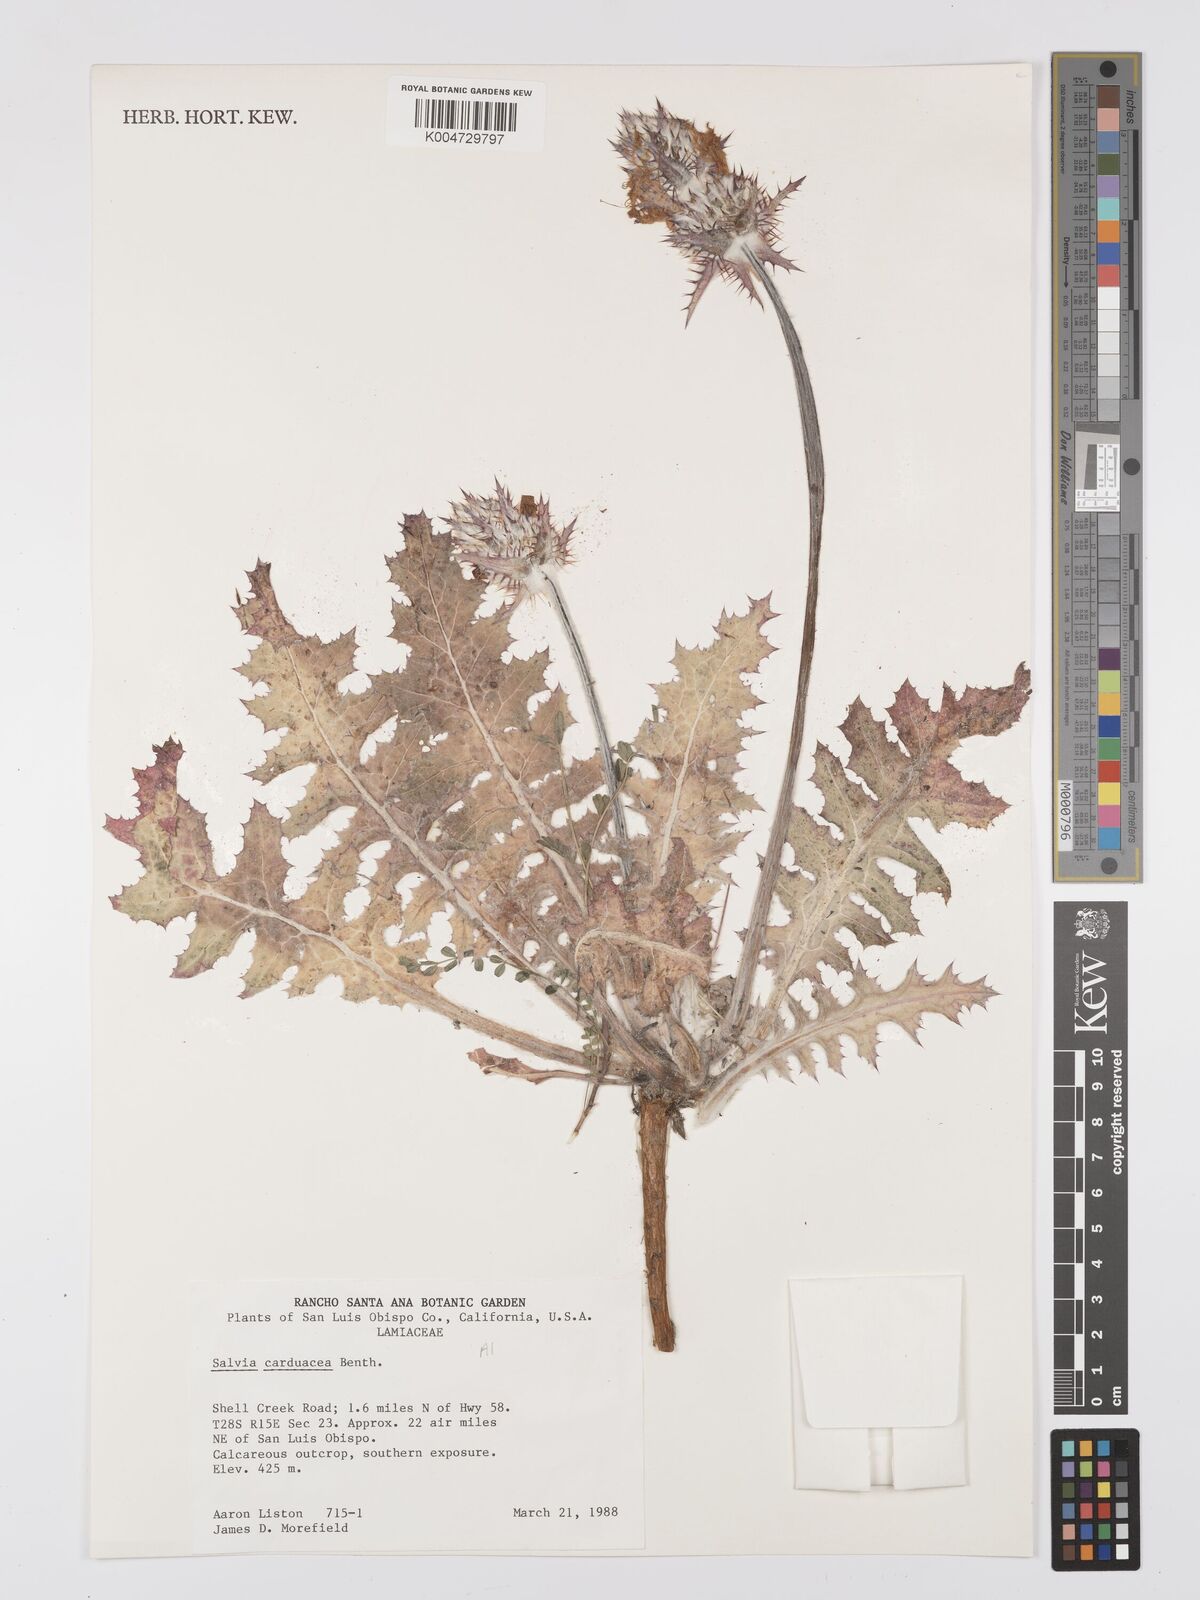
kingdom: Plantae
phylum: Tracheophyta
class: Magnoliopsida
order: Lamiales
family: Lamiaceae
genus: Salvia
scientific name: Salvia carduacea
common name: Thistle sage
